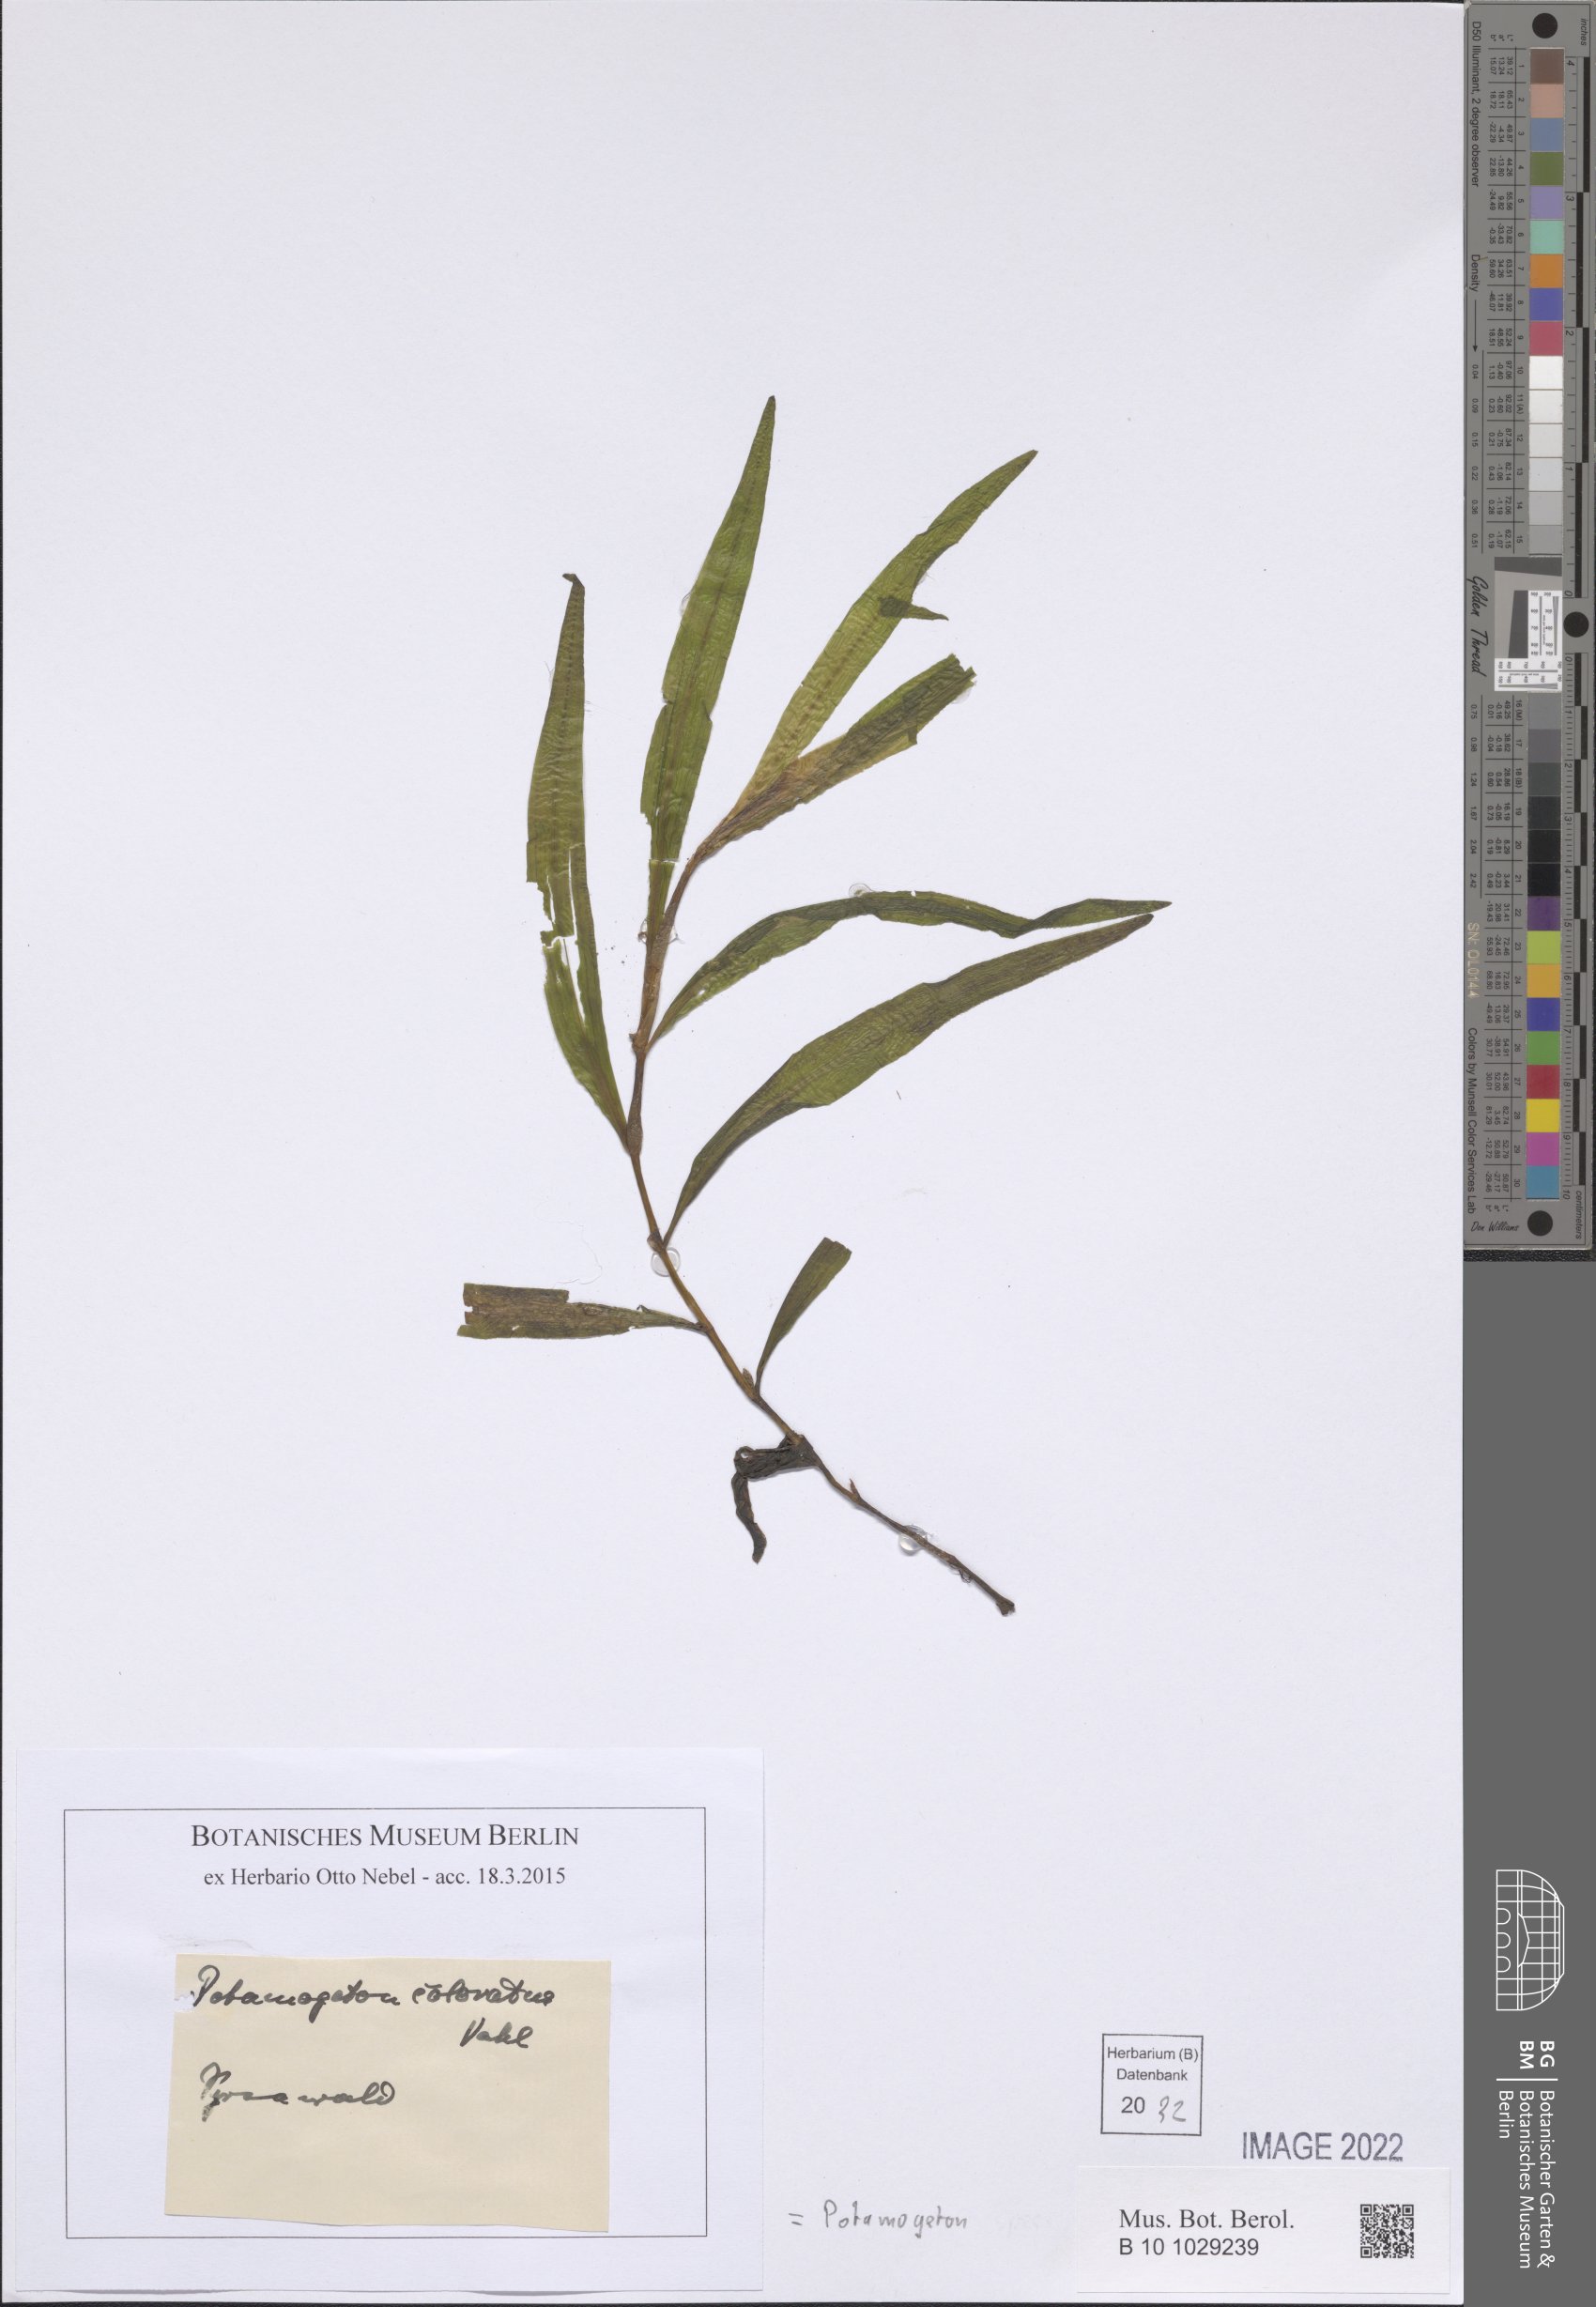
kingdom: Plantae
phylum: Tracheophyta
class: Liliopsida
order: Alismatales
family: Potamogetonaceae
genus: Potamogeton
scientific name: Potamogeton
